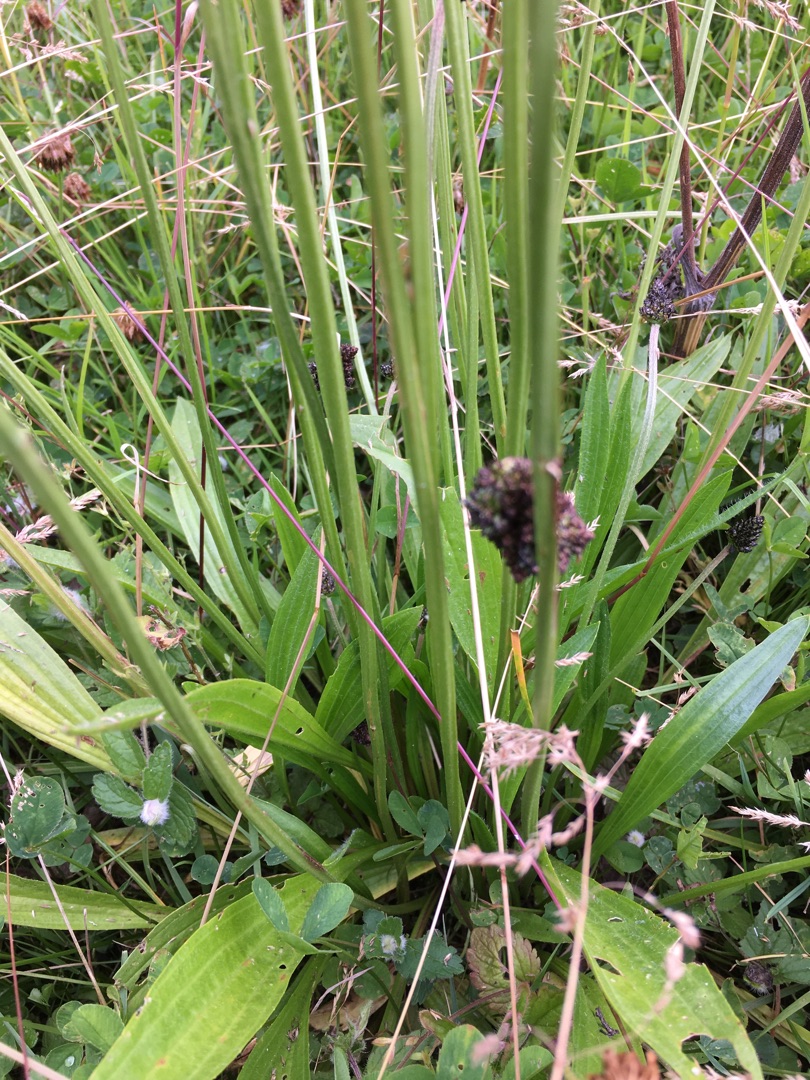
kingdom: Plantae
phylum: Tracheophyta
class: Magnoliopsida
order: Lamiales
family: Plantaginaceae
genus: Plantago
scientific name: Plantago lanceolata
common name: Lancet-vejbred
